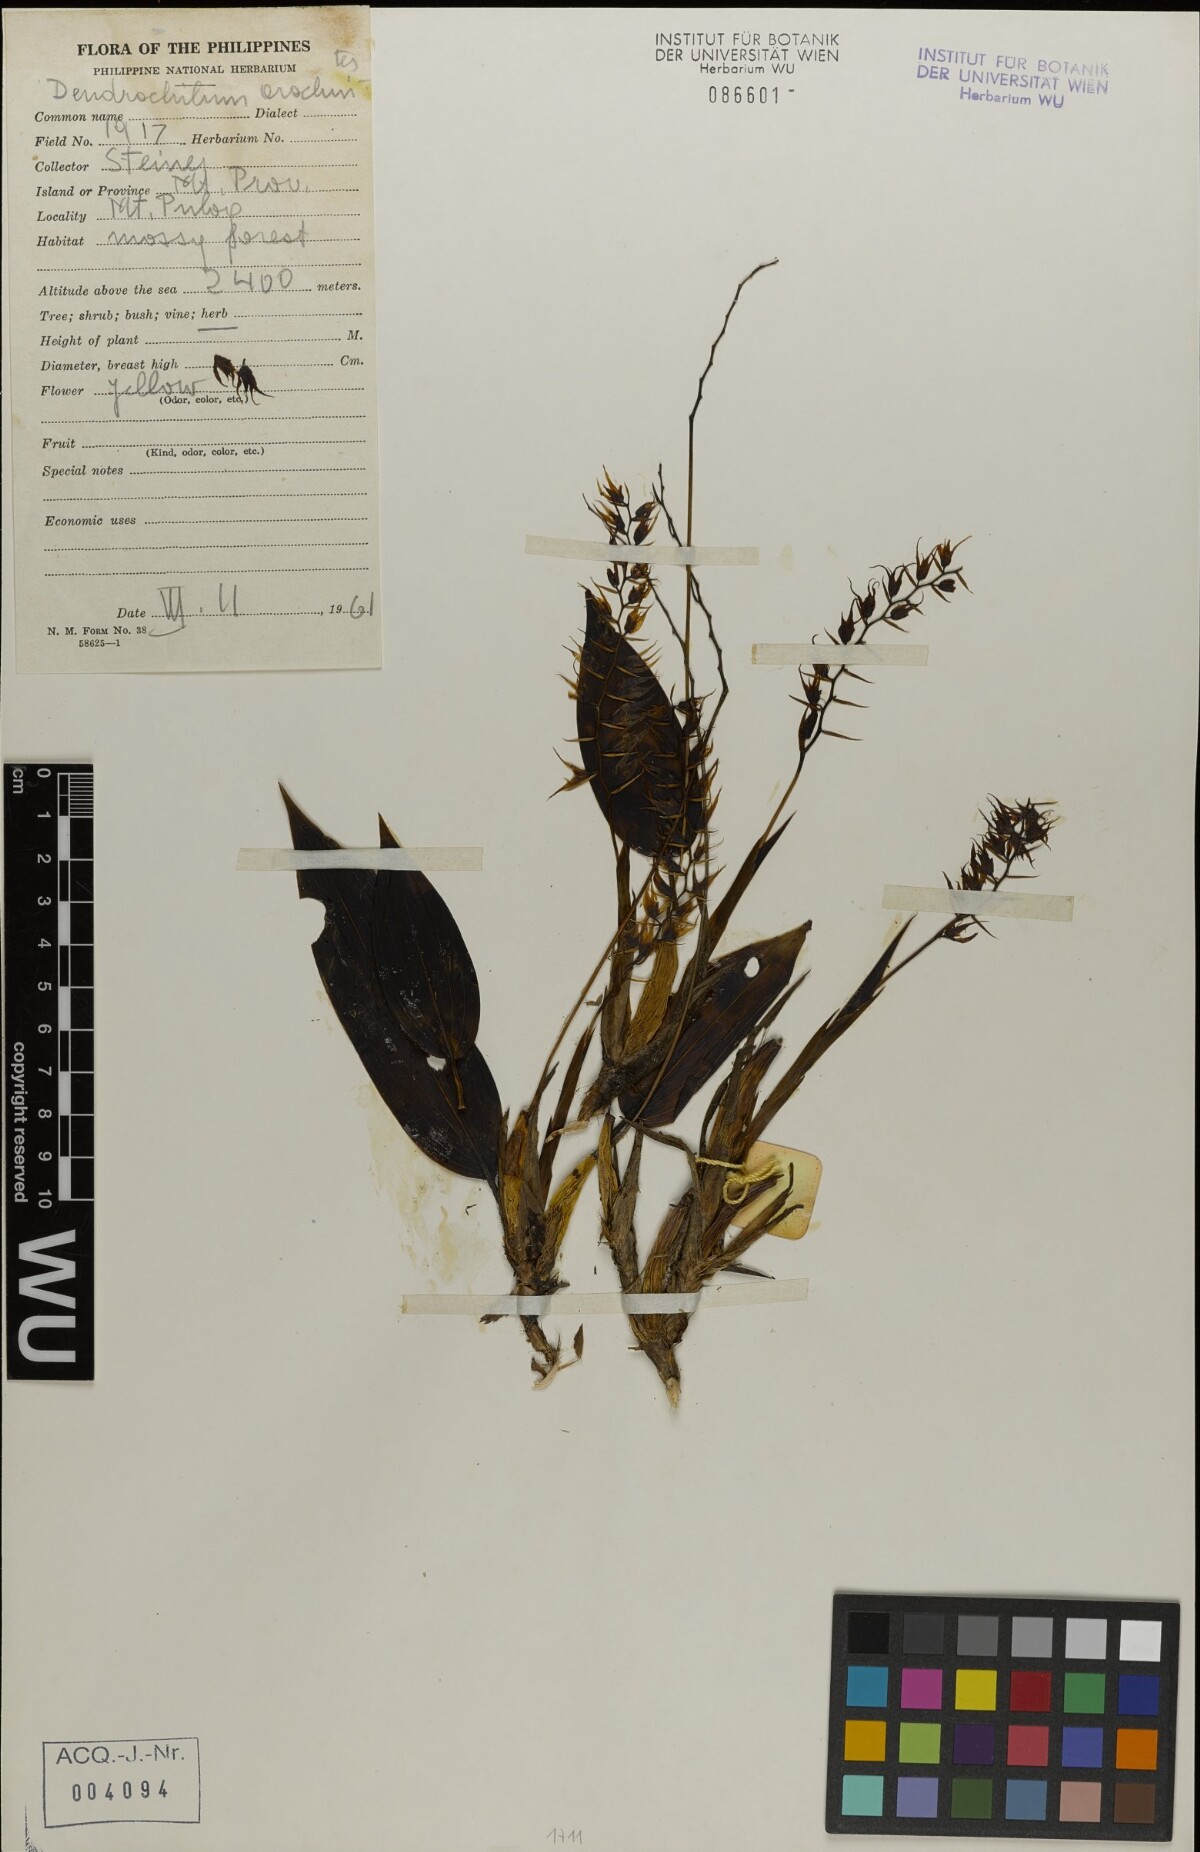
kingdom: Plantae
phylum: Tracheophyta
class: Liliopsida
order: Asparagales
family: Orchidaceae
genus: Coelogyne
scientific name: Coelogyne arachnites
